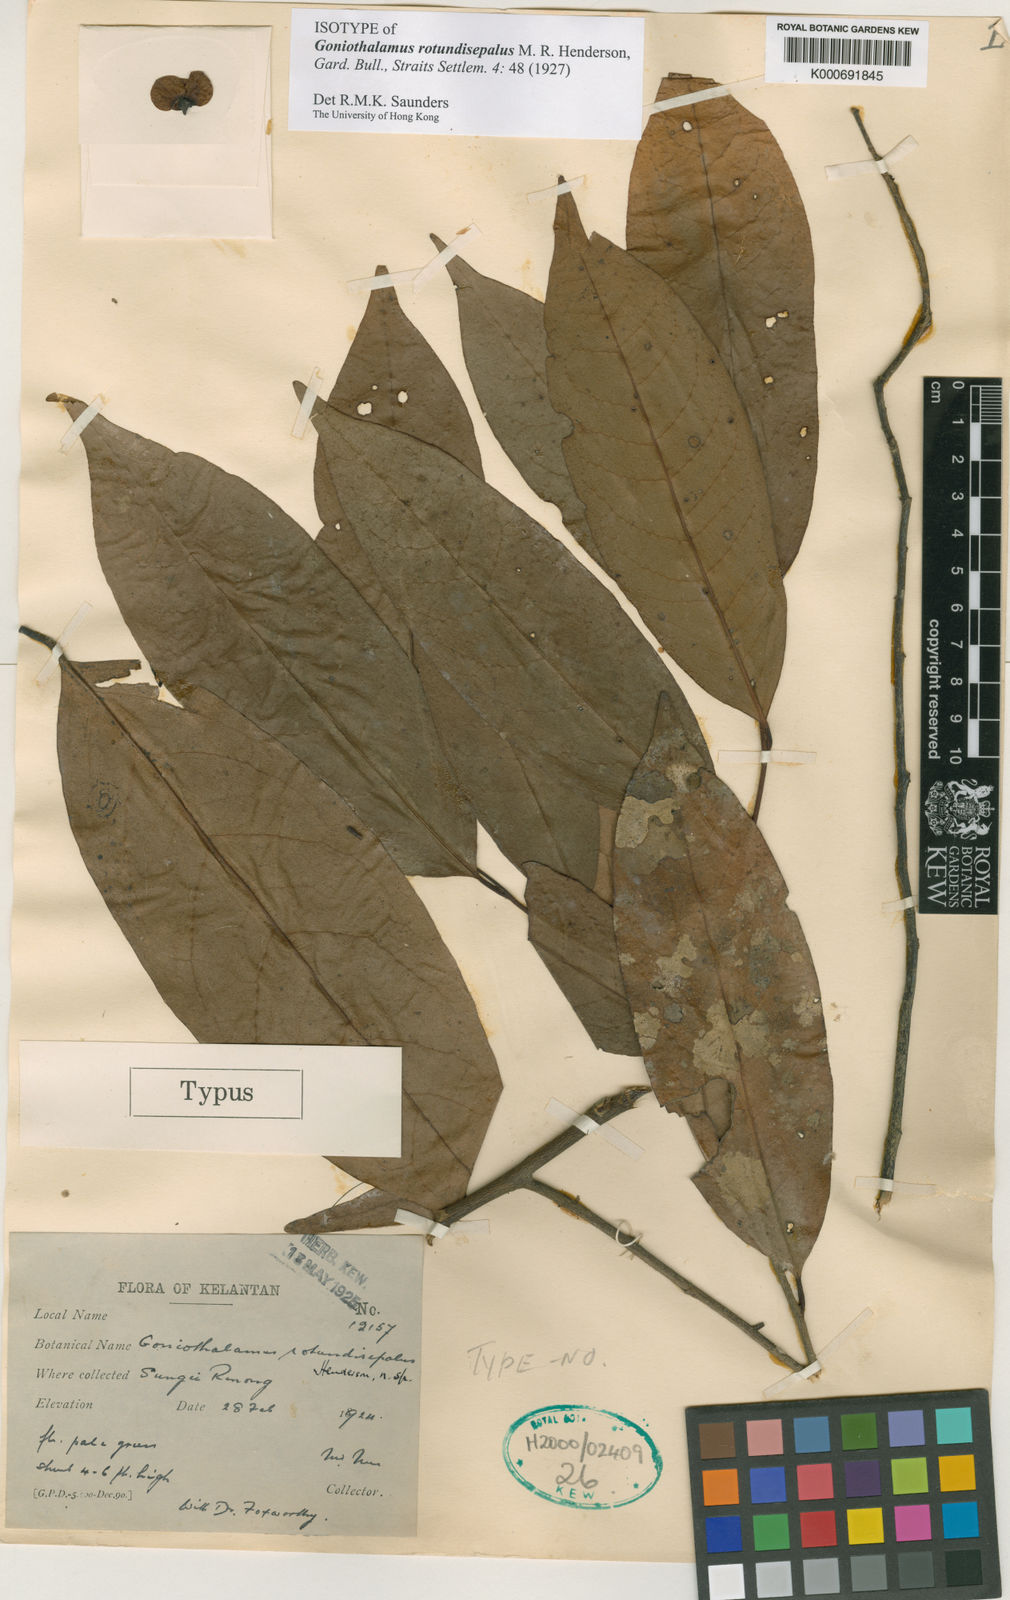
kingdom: Plantae
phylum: Tracheophyta
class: Magnoliopsida
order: Magnoliales
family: Annonaceae
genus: Goniothalamus
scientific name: Goniothalamus rotundisepalus
